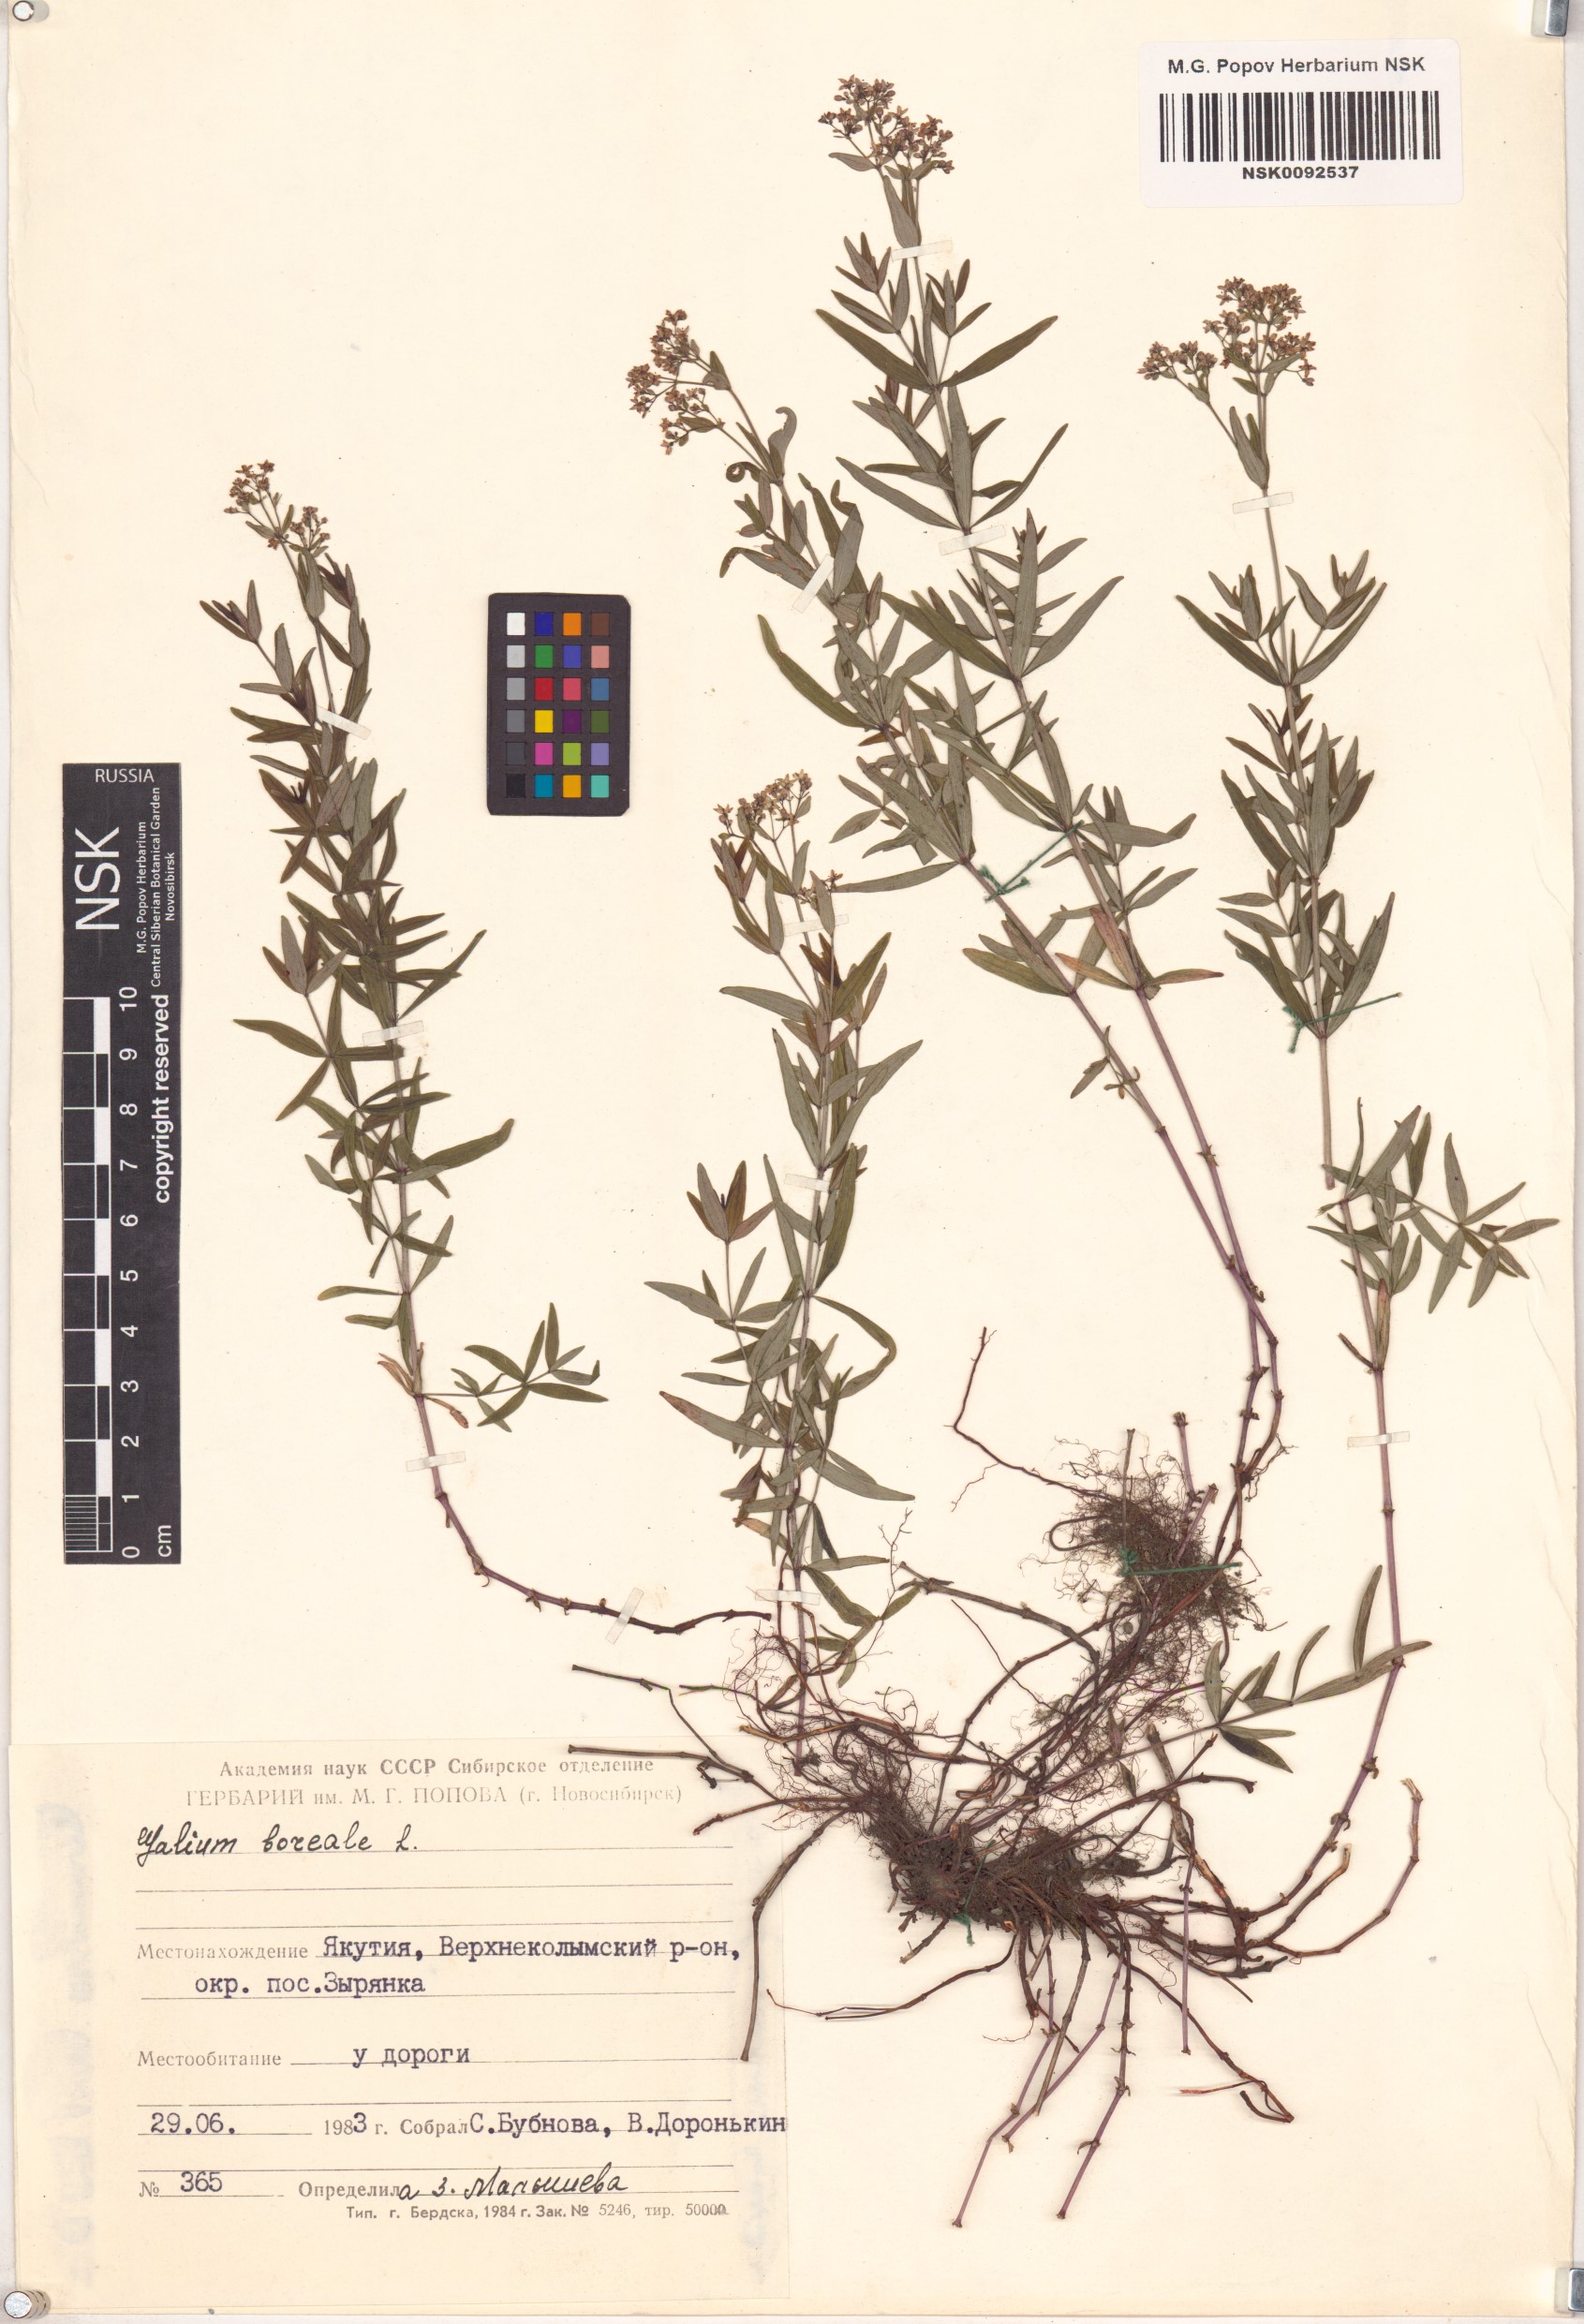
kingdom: Plantae
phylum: Tracheophyta
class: Magnoliopsida
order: Gentianales
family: Rubiaceae
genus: Galium
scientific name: Galium boreale
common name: Northern bedstraw
